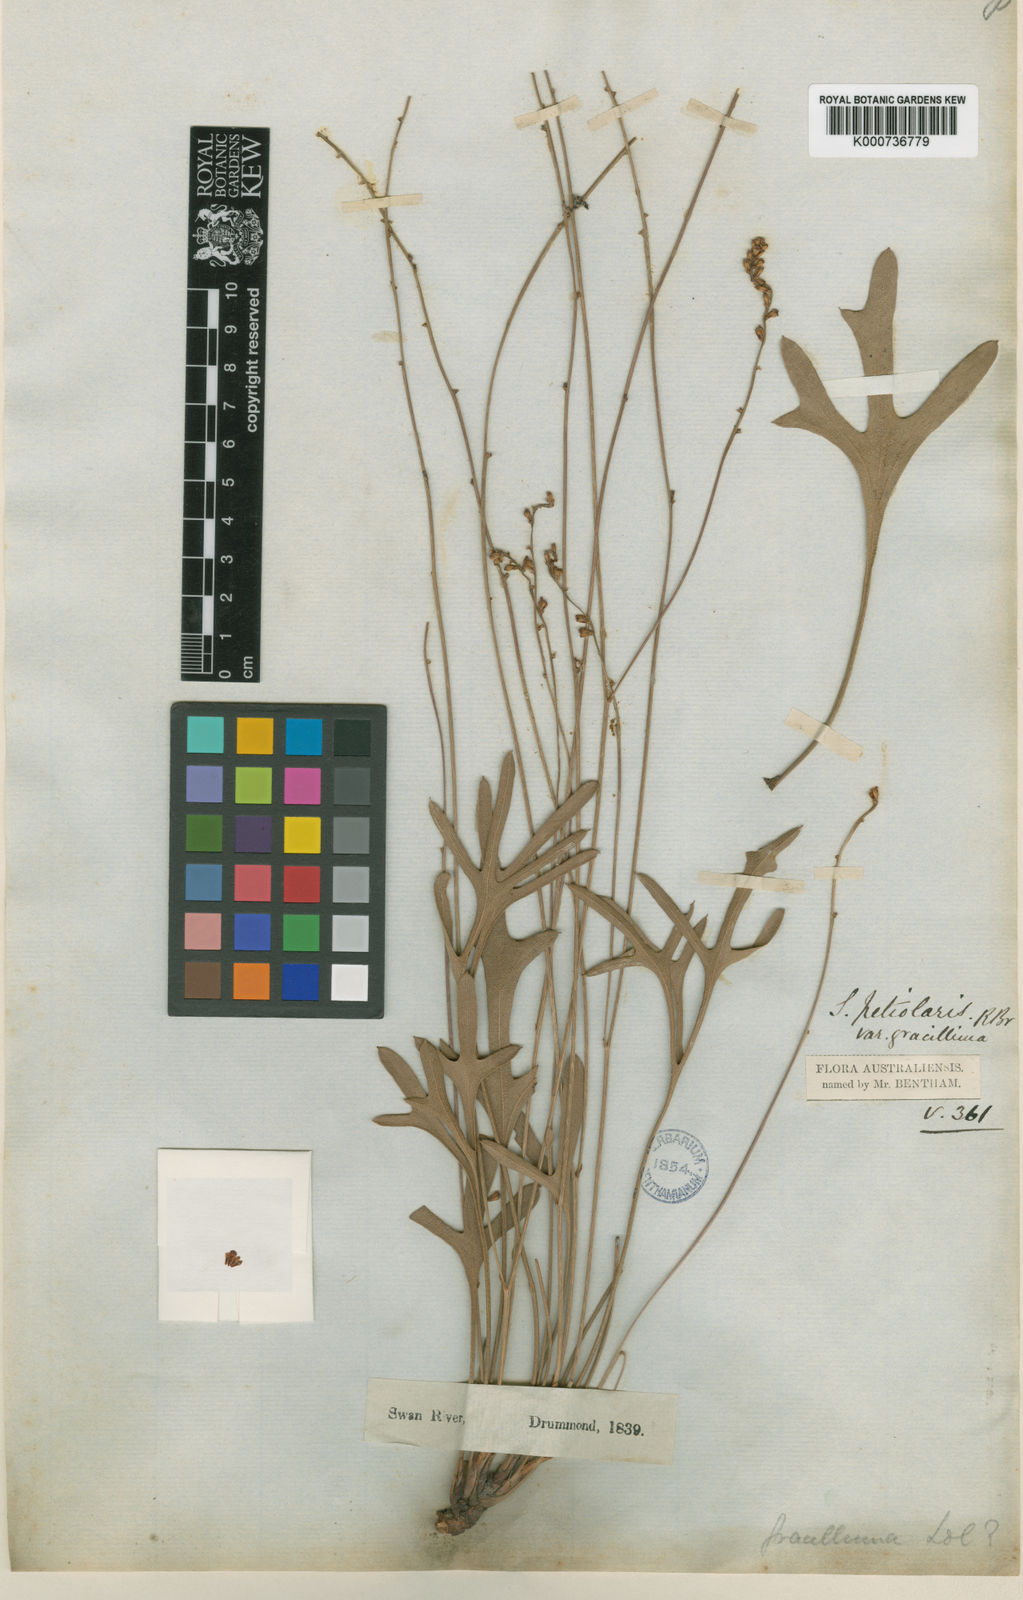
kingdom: Plantae
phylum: Tracheophyta
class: Magnoliopsida
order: Proteales
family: Proteaceae
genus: Synaphea
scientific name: Synaphea gracillima
